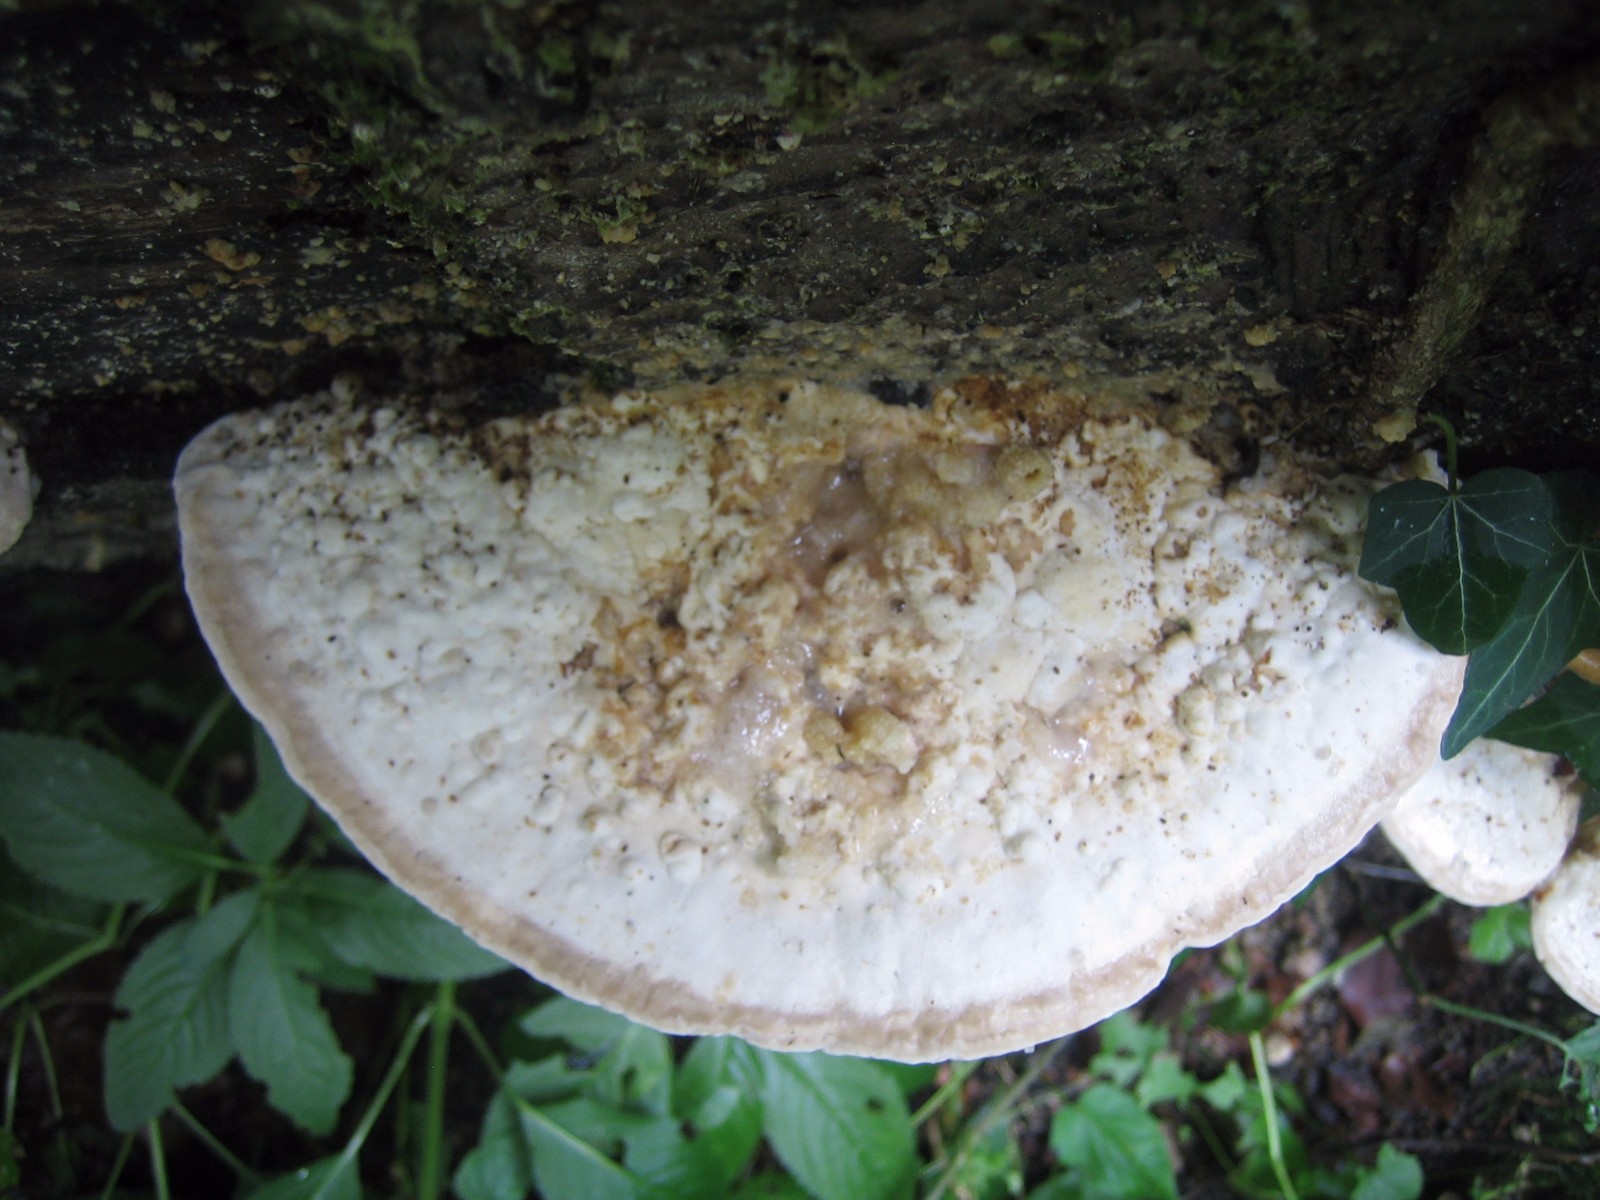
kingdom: Fungi
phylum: Basidiomycota
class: Agaricomycetes
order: Polyporales
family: Polyporaceae
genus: Trametes
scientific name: Trametes gibbosa
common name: puklet læderporesvamp
